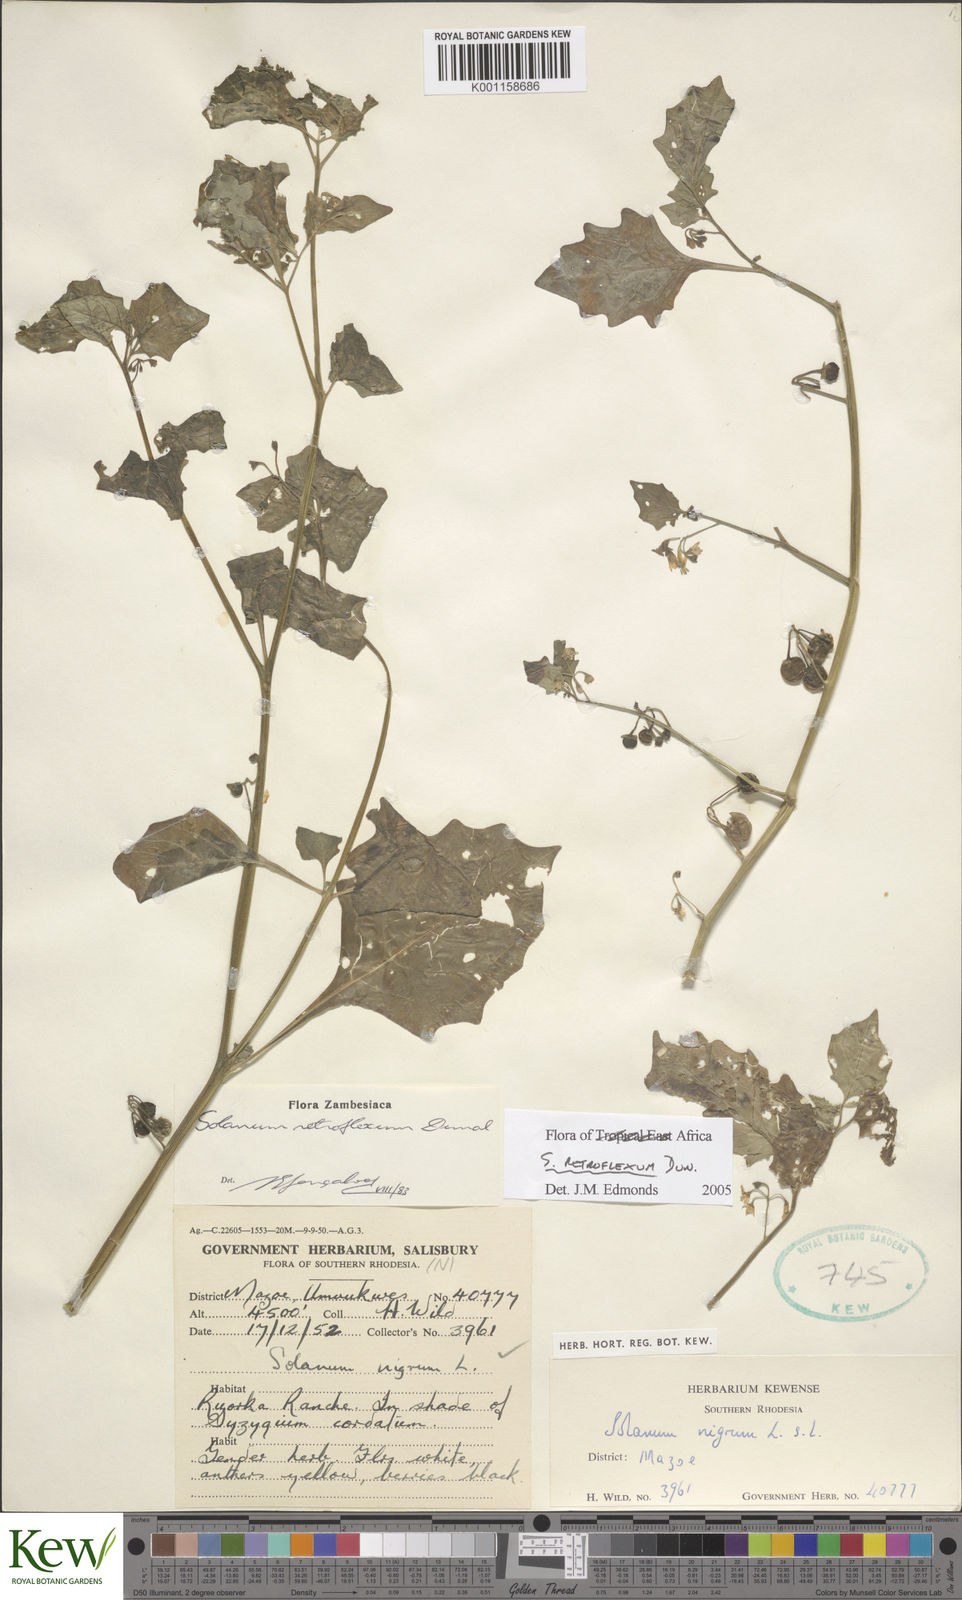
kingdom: Plantae
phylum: Tracheophyta
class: Magnoliopsida
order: Solanales
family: Solanaceae
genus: Solanum
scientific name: Solanum retroflexum
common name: Wonderberry
